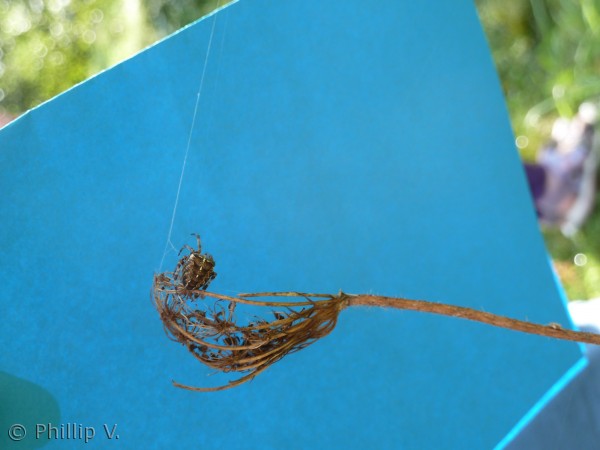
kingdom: Animalia
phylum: Arthropoda
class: Arachnida
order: Araneae
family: Araneidae
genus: Araneus
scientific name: Araneus diadematus
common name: Korsedderkop
